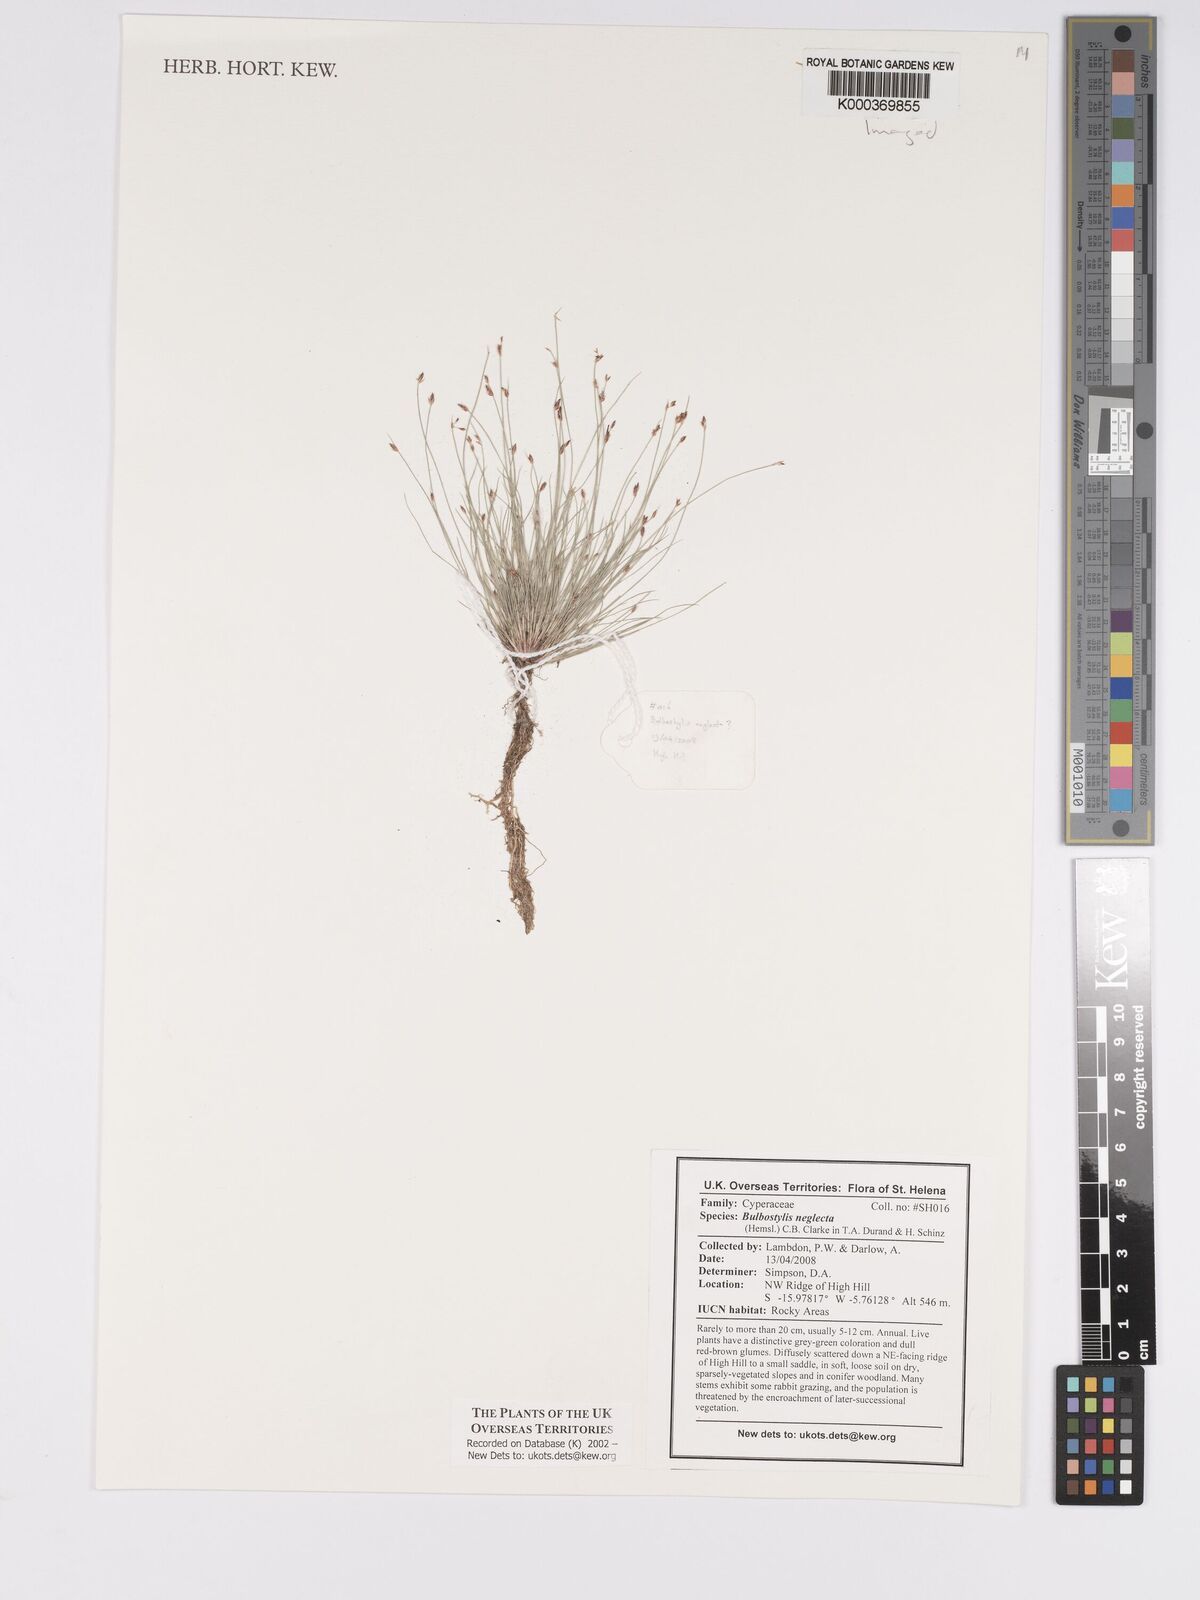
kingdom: Plantae
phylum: Tracheophyta
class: Liliopsida
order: Poales
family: Cyperaceae
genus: Bulbostylis
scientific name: Bulbostylis neglecta
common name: Neglected tuft sedge
